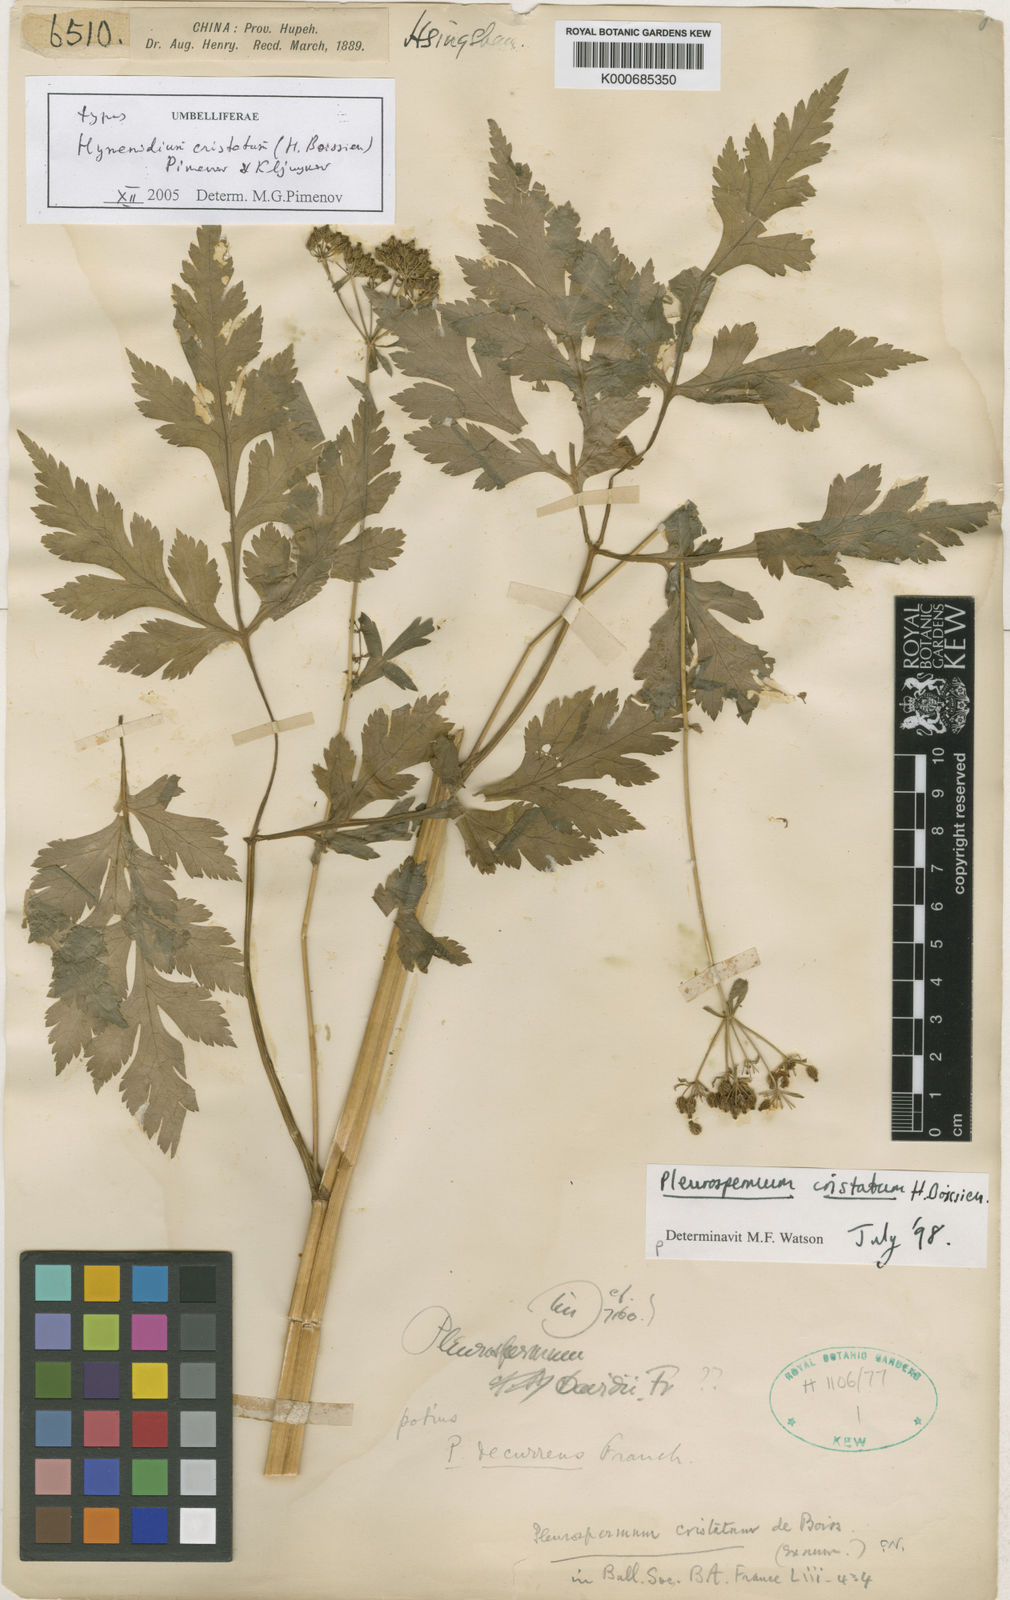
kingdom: Plantae
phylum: Tracheophyta
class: Magnoliopsida
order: Apiales
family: Apiaceae
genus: Hymenidium
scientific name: Hymenidium cristatum
